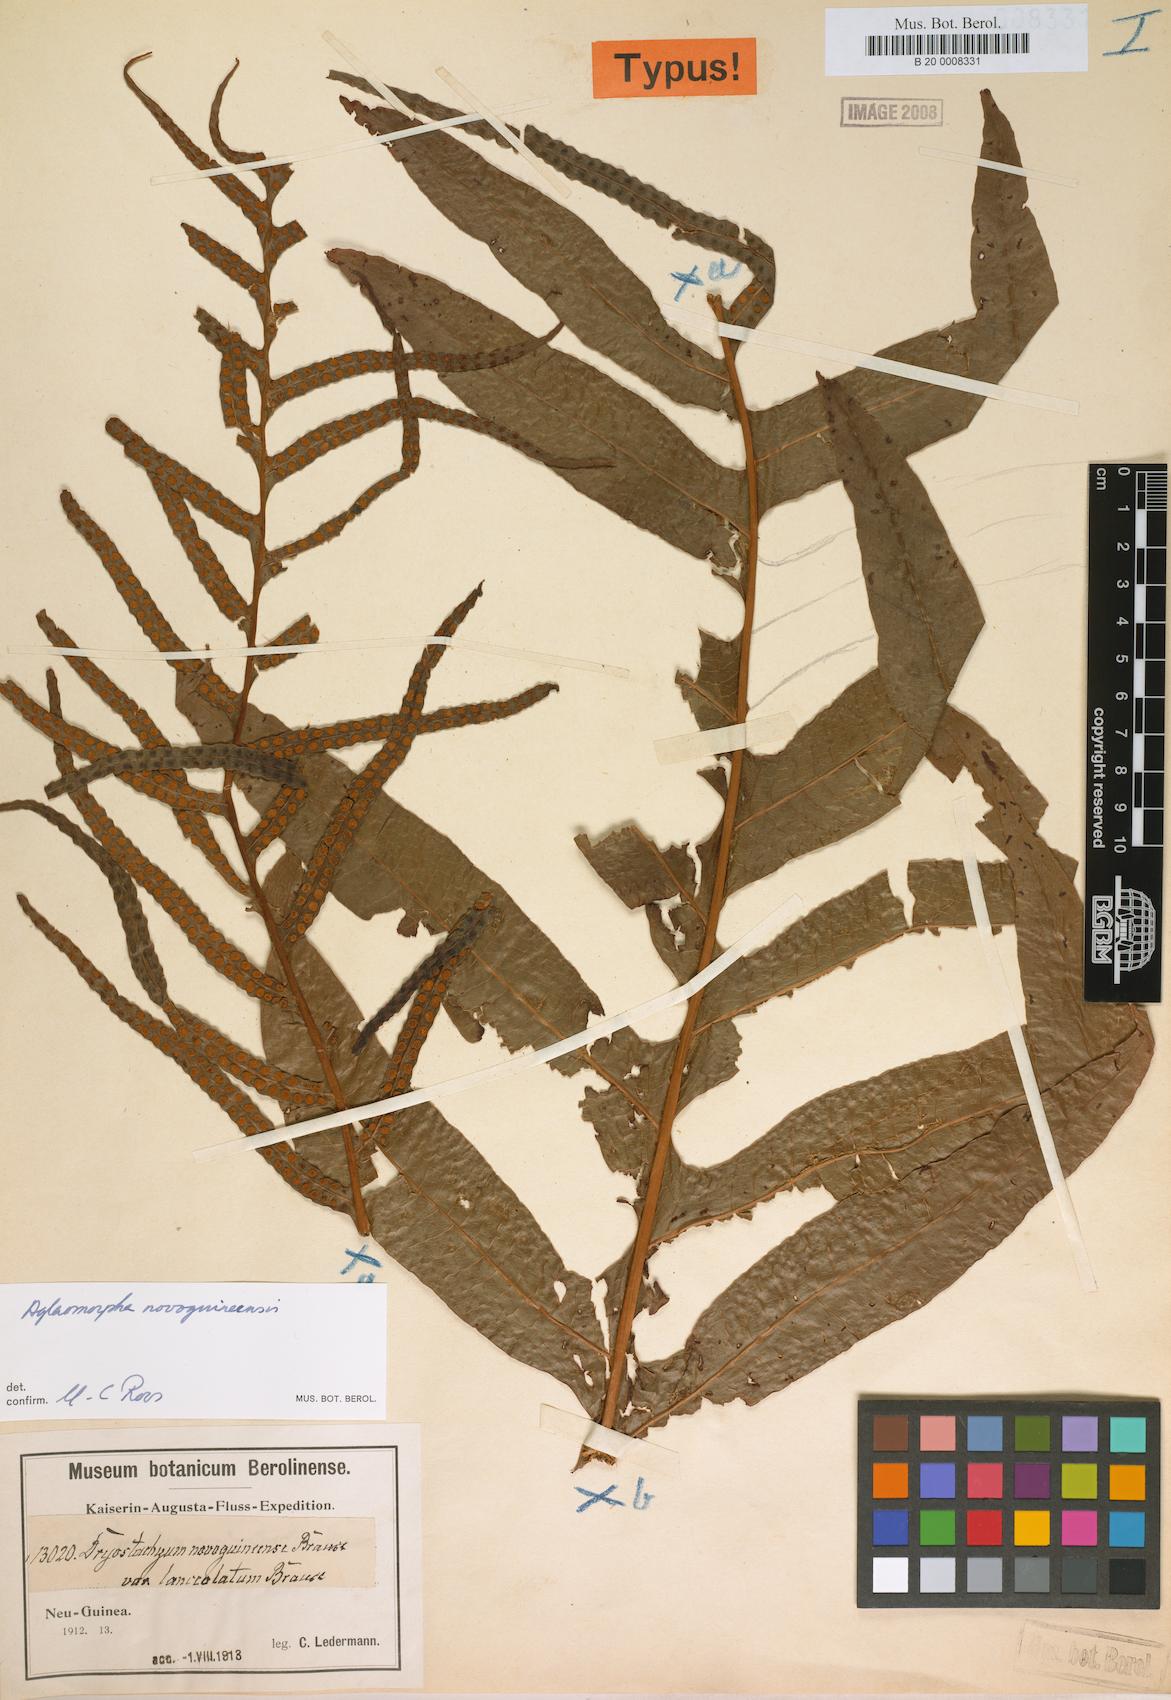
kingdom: Plantae
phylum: Tracheophyta
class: Polypodiopsida
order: Polypodiales
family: Polypodiaceae
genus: Drynaria
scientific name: Drynaria Aglaomorpha novoguineensis
